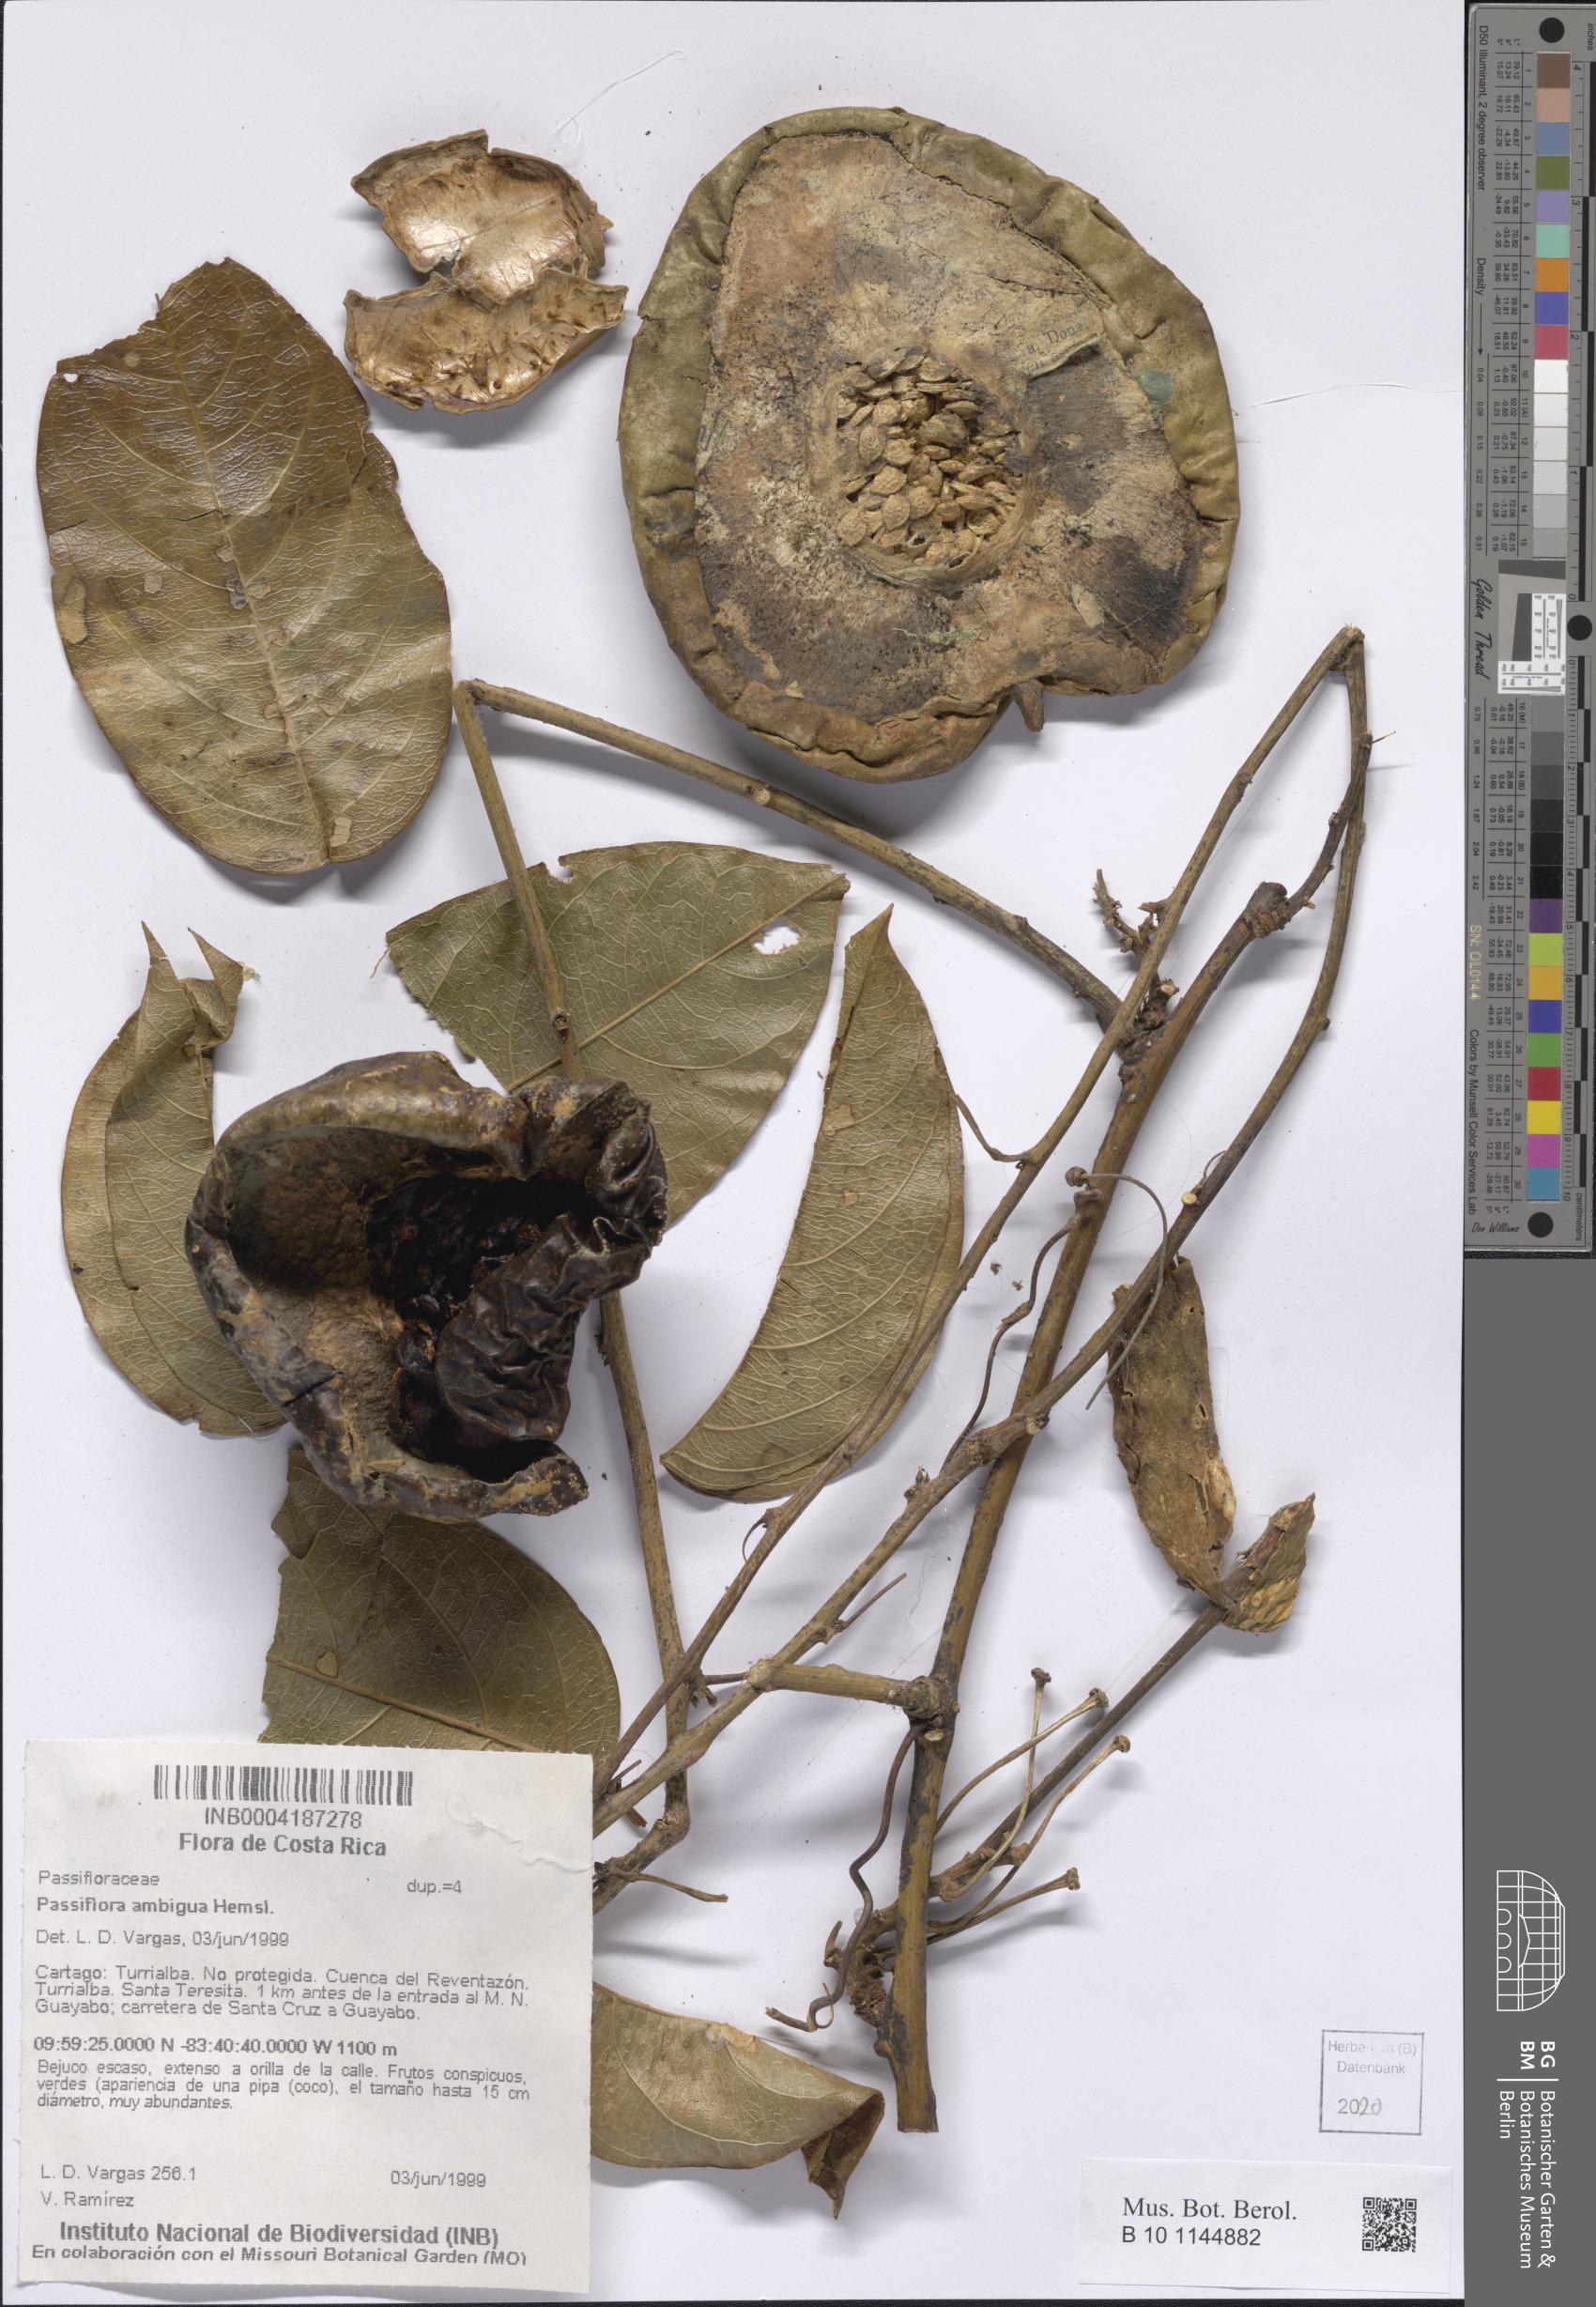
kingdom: Plantae
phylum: Tracheophyta
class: Magnoliopsida
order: Malpighiales
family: Passifloraceae
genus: Passiflora
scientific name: Passiflora ambigua
